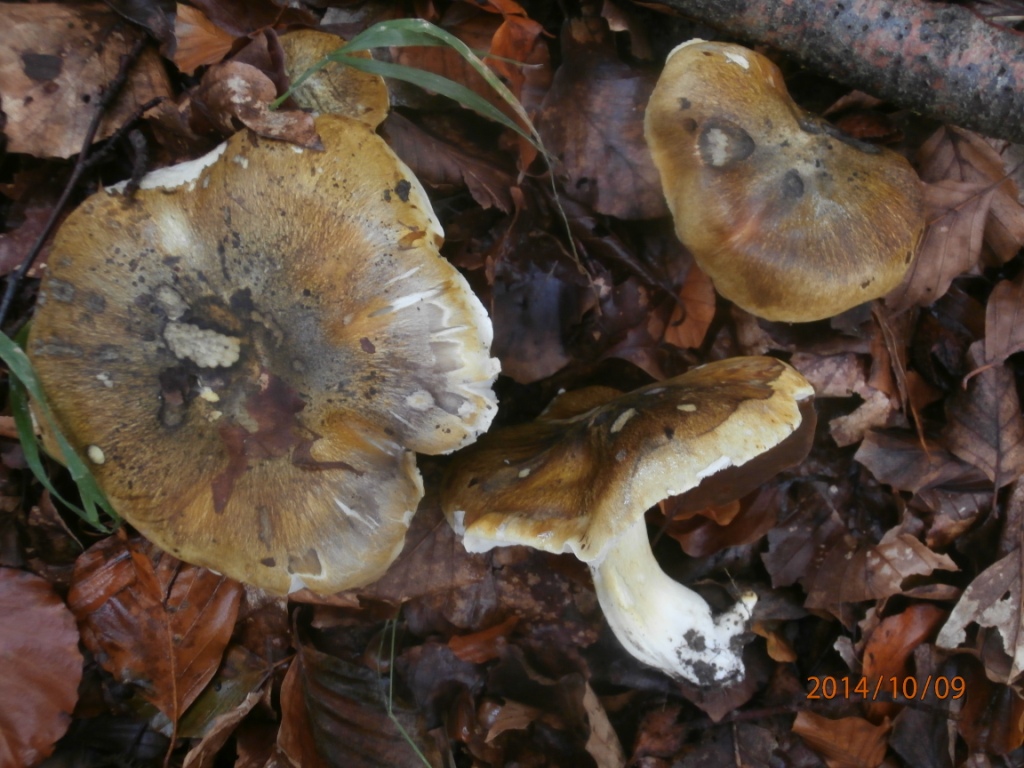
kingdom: Fungi
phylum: Basidiomycota
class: Agaricomycetes
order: Agaricales
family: Tricholomataceae
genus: Tricholoma
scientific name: Tricholoma umbonatum
